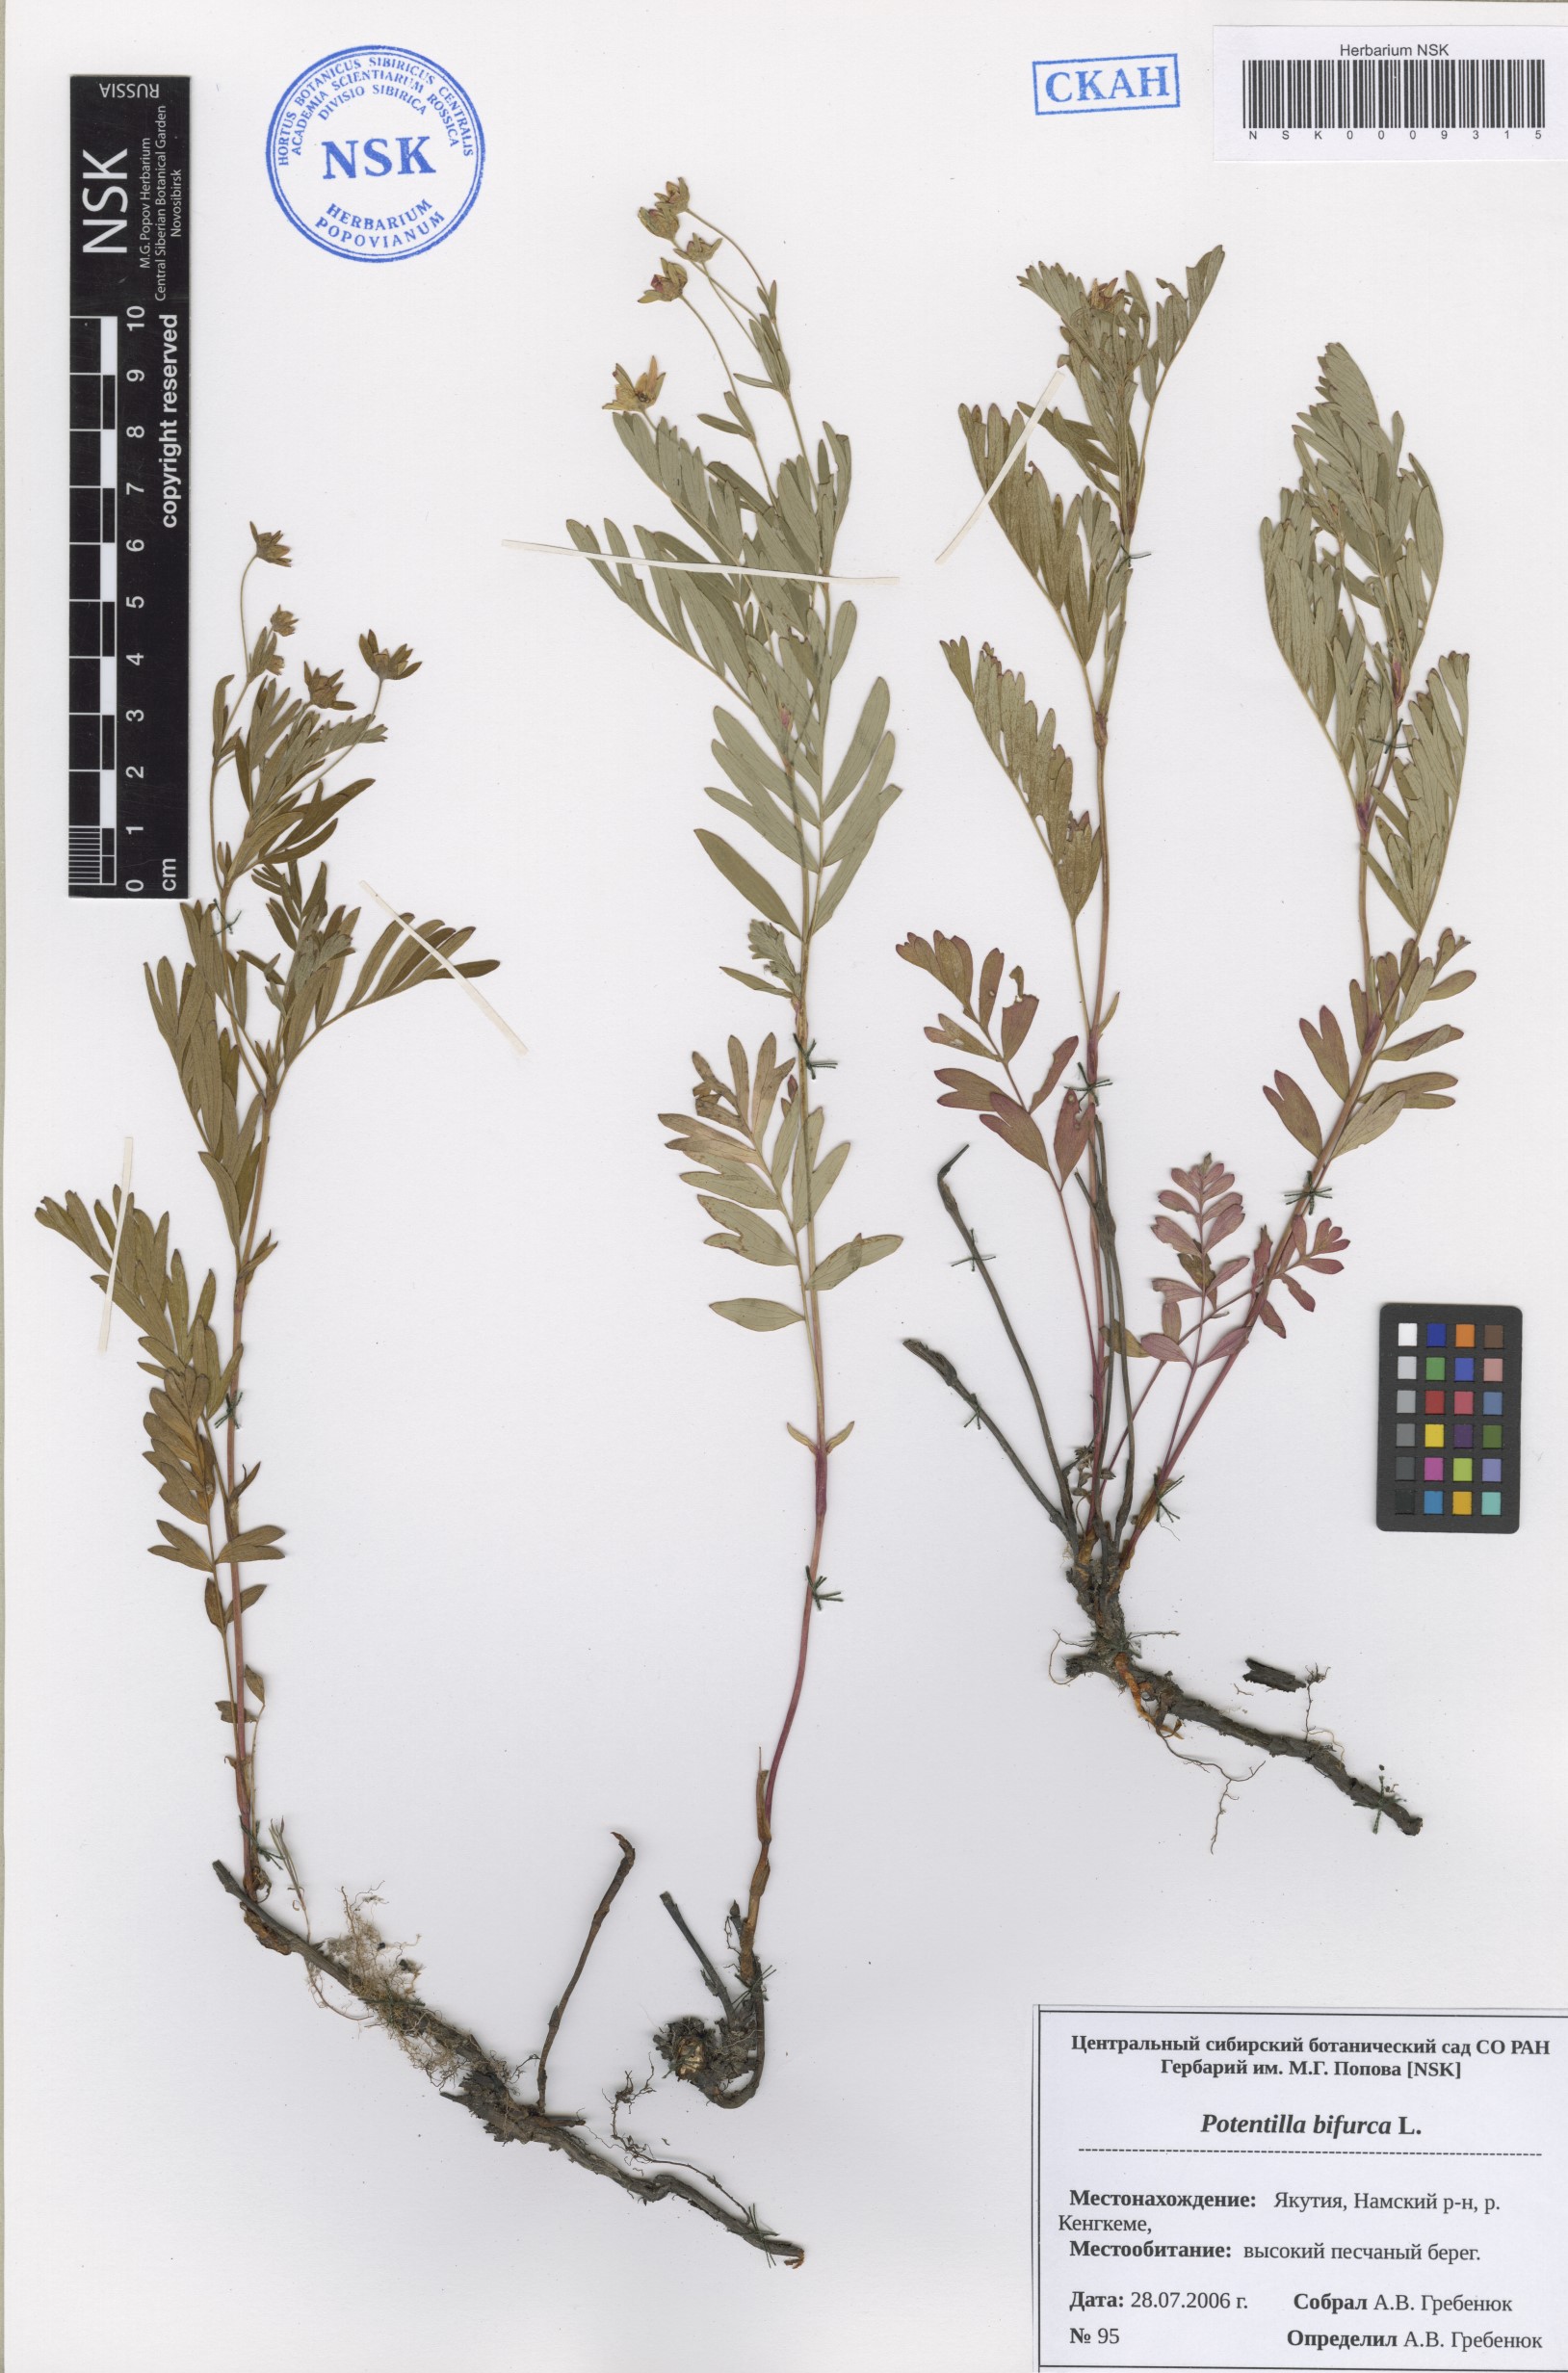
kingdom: Plantae
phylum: Tracheophyta
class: Magnoliopsida
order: Rosales
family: Rosaceae
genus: Sibbaldianthe
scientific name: Sibbaldianthe bifurca
